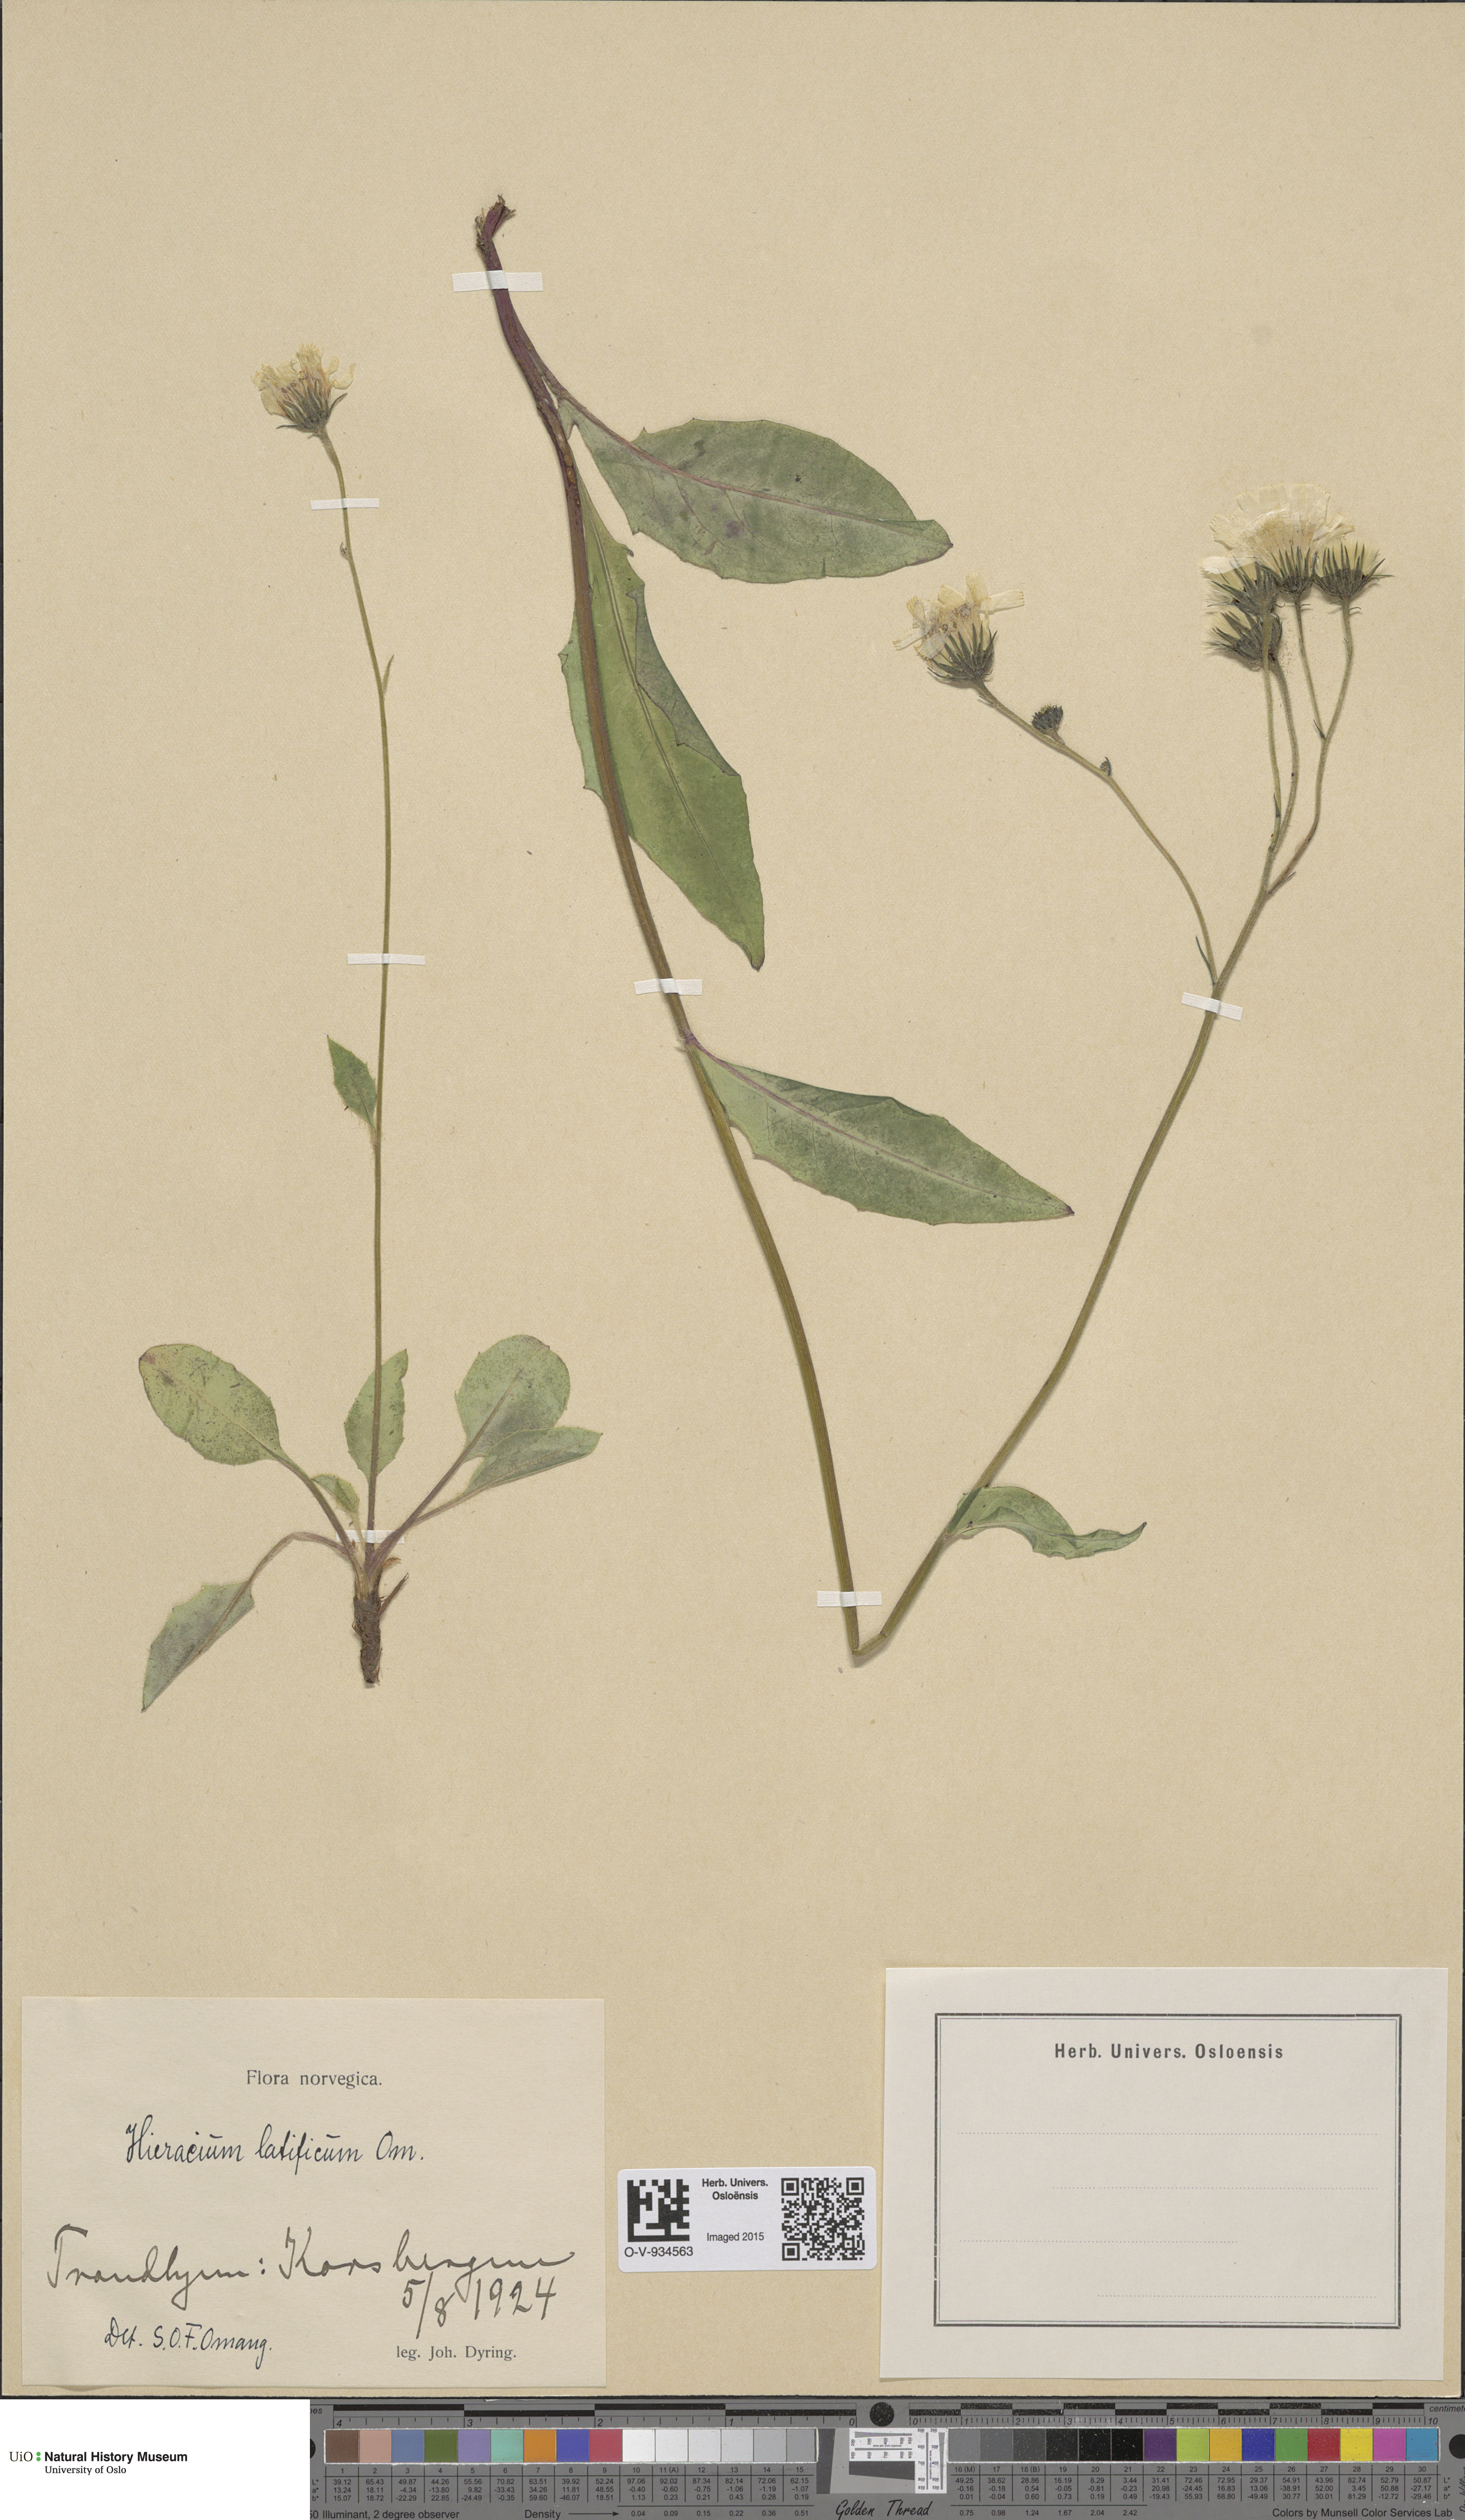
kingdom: Plantae
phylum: Tracheophyta
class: Magnoliopsida
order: Asterales
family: Asteraceae
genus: Hieracium
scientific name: Hieracium saxifragum
